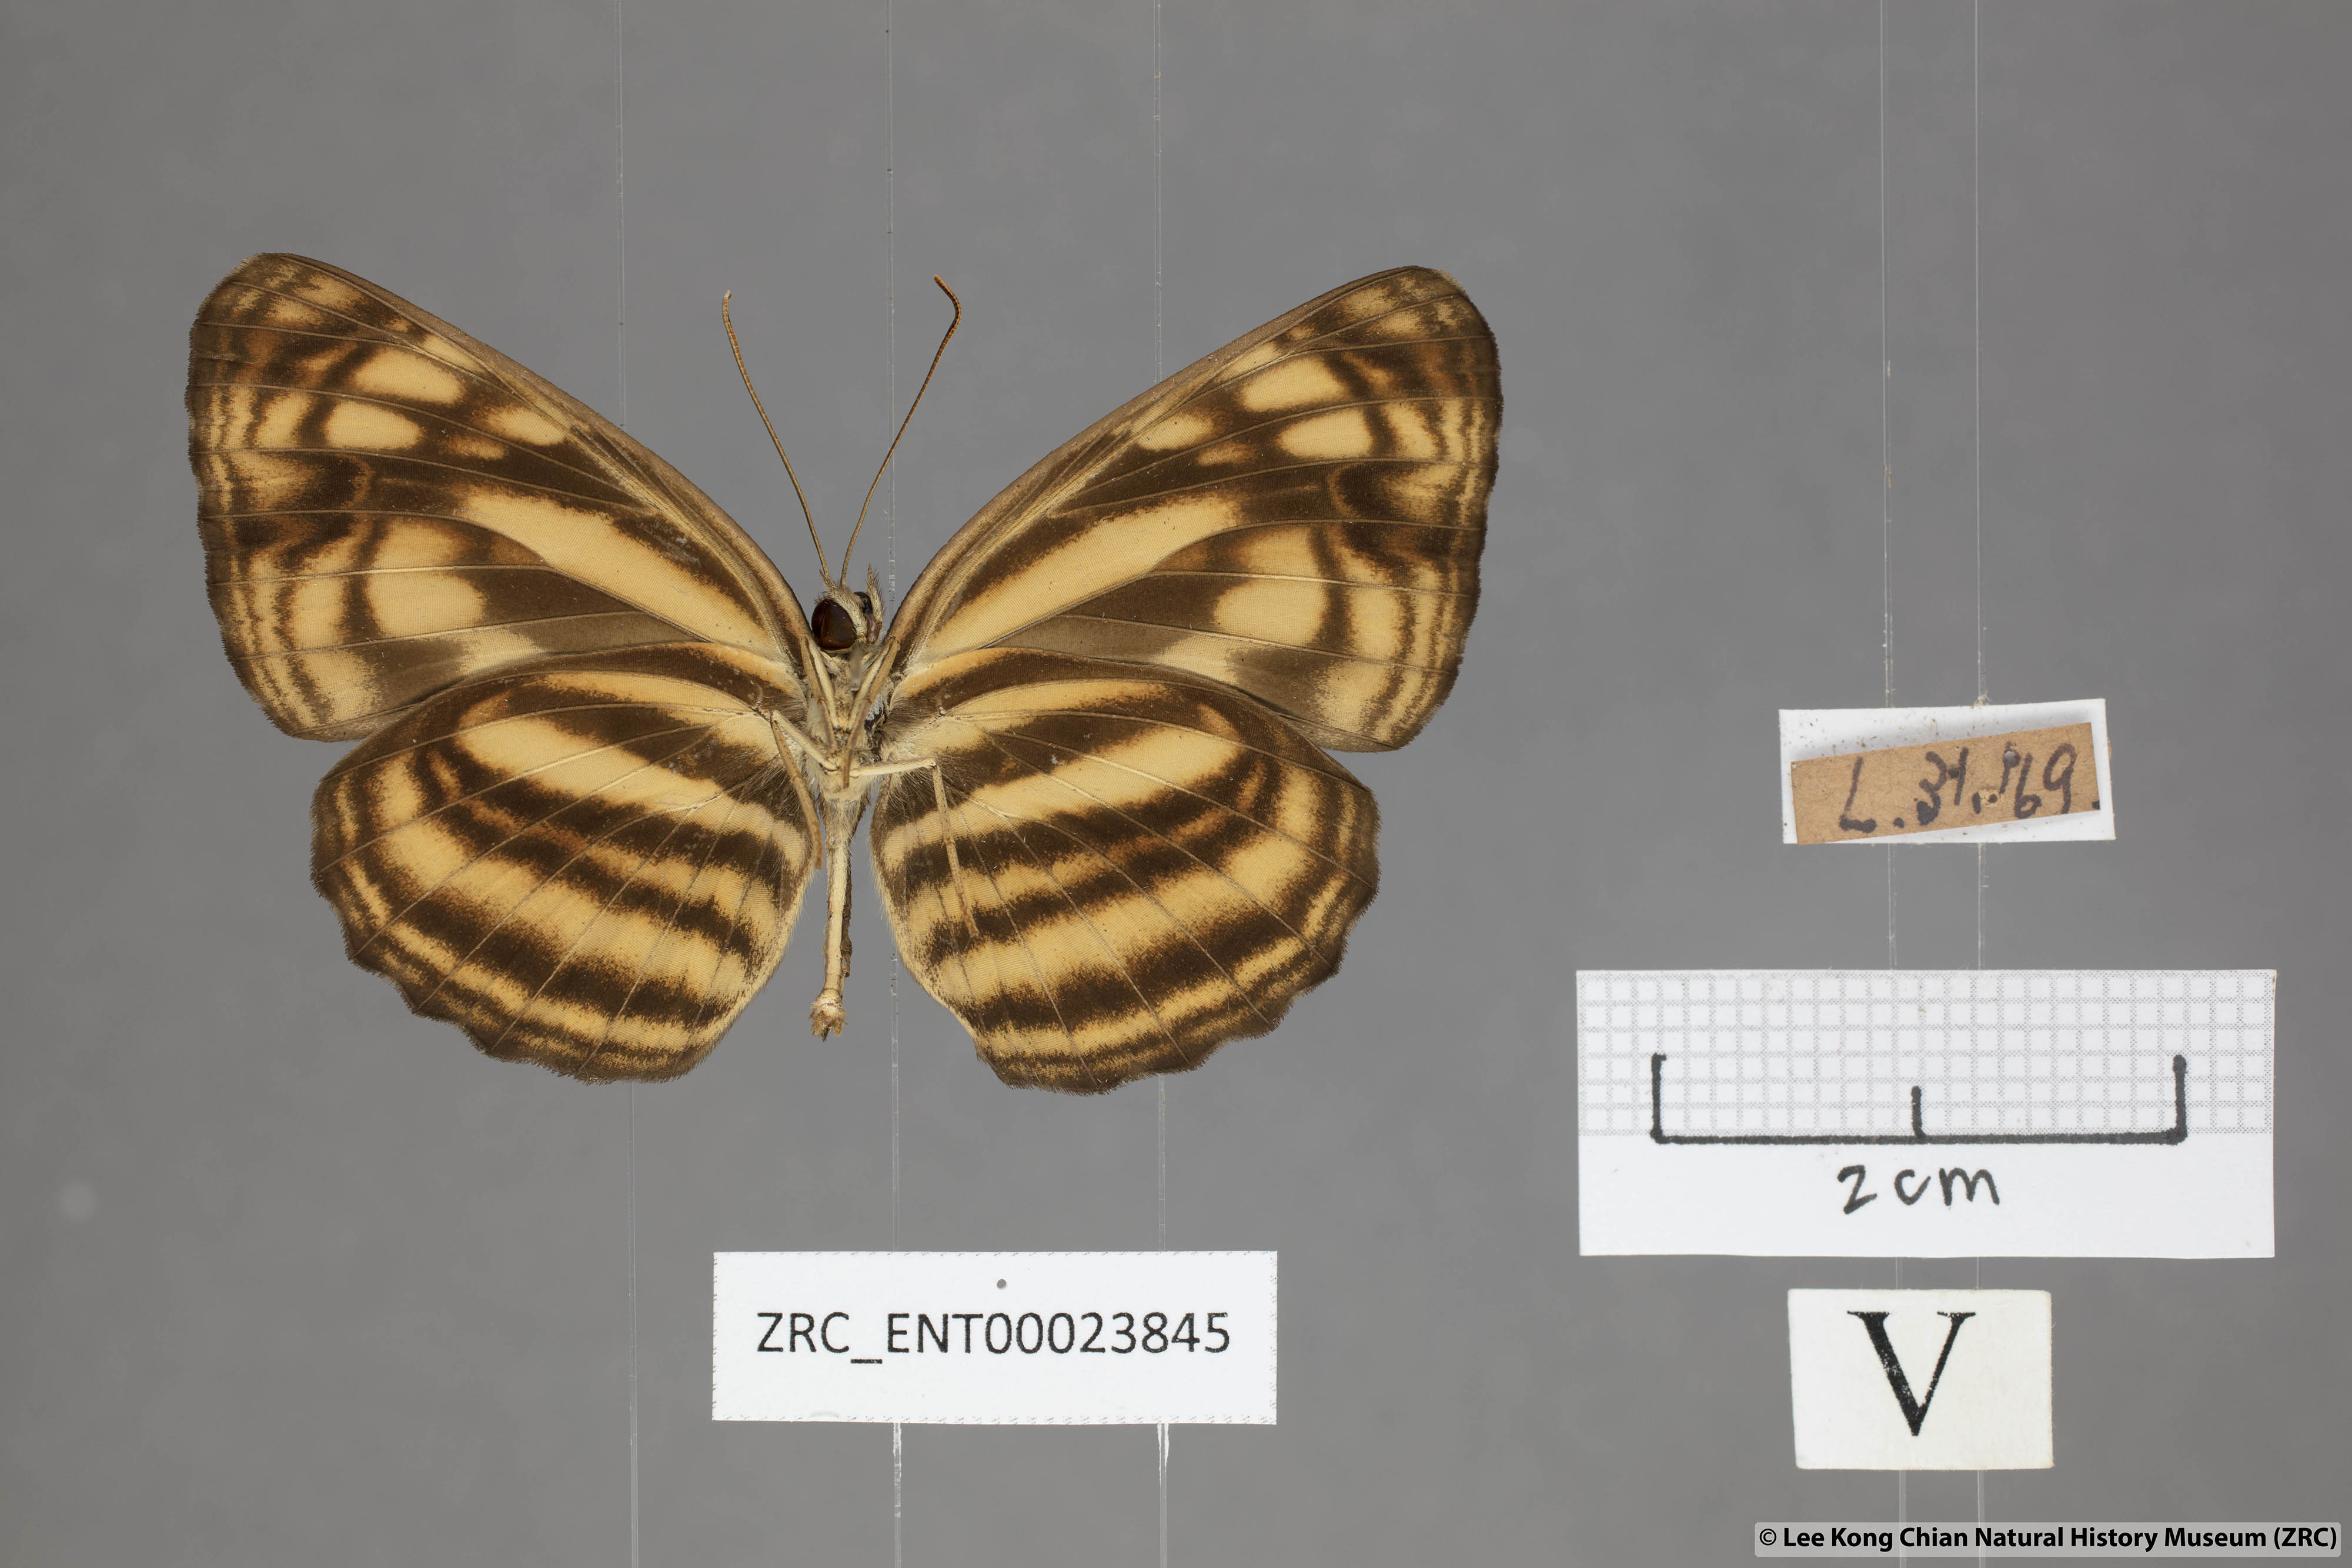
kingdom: Animalia
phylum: Arthropoda
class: Insecta
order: Lepidoptera
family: Nymphalidae
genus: Lasippa
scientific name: Lasippa monata
